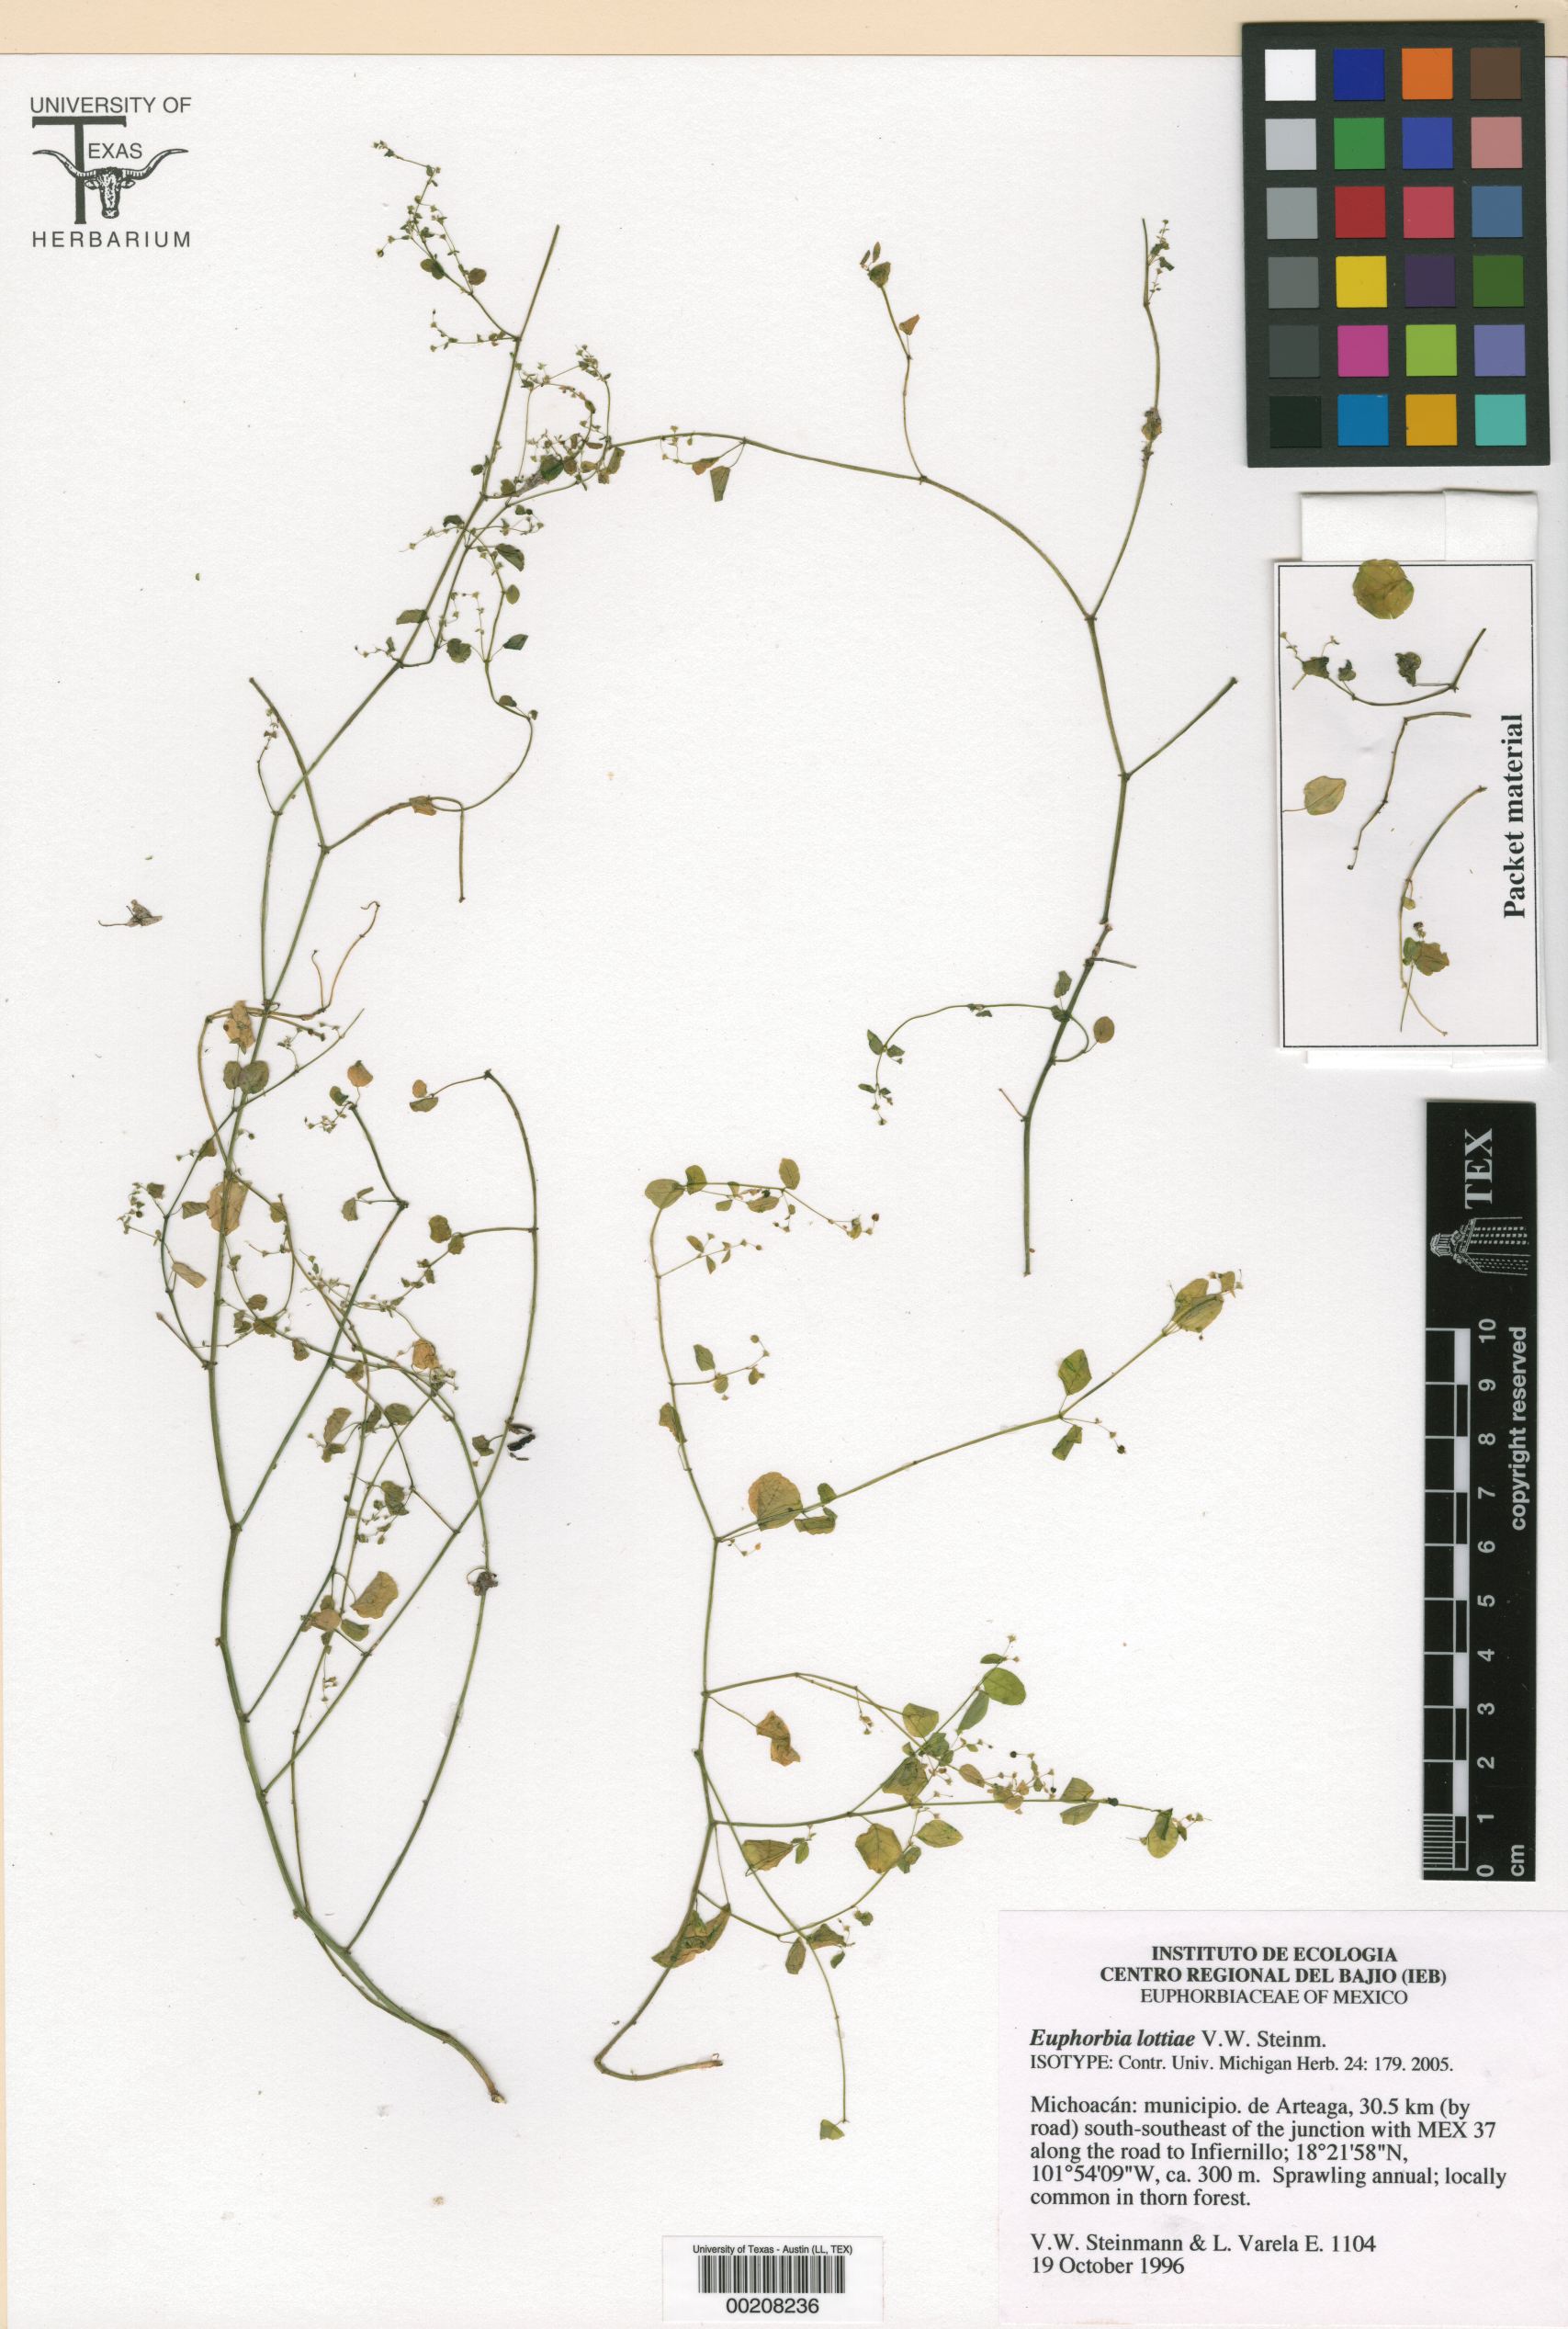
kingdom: Plantae
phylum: Tracheophyta
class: Magnoliopsida
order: Malpighiales
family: Euphorbiaceae
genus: Euphorbia
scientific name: Euphorbia lottiae
